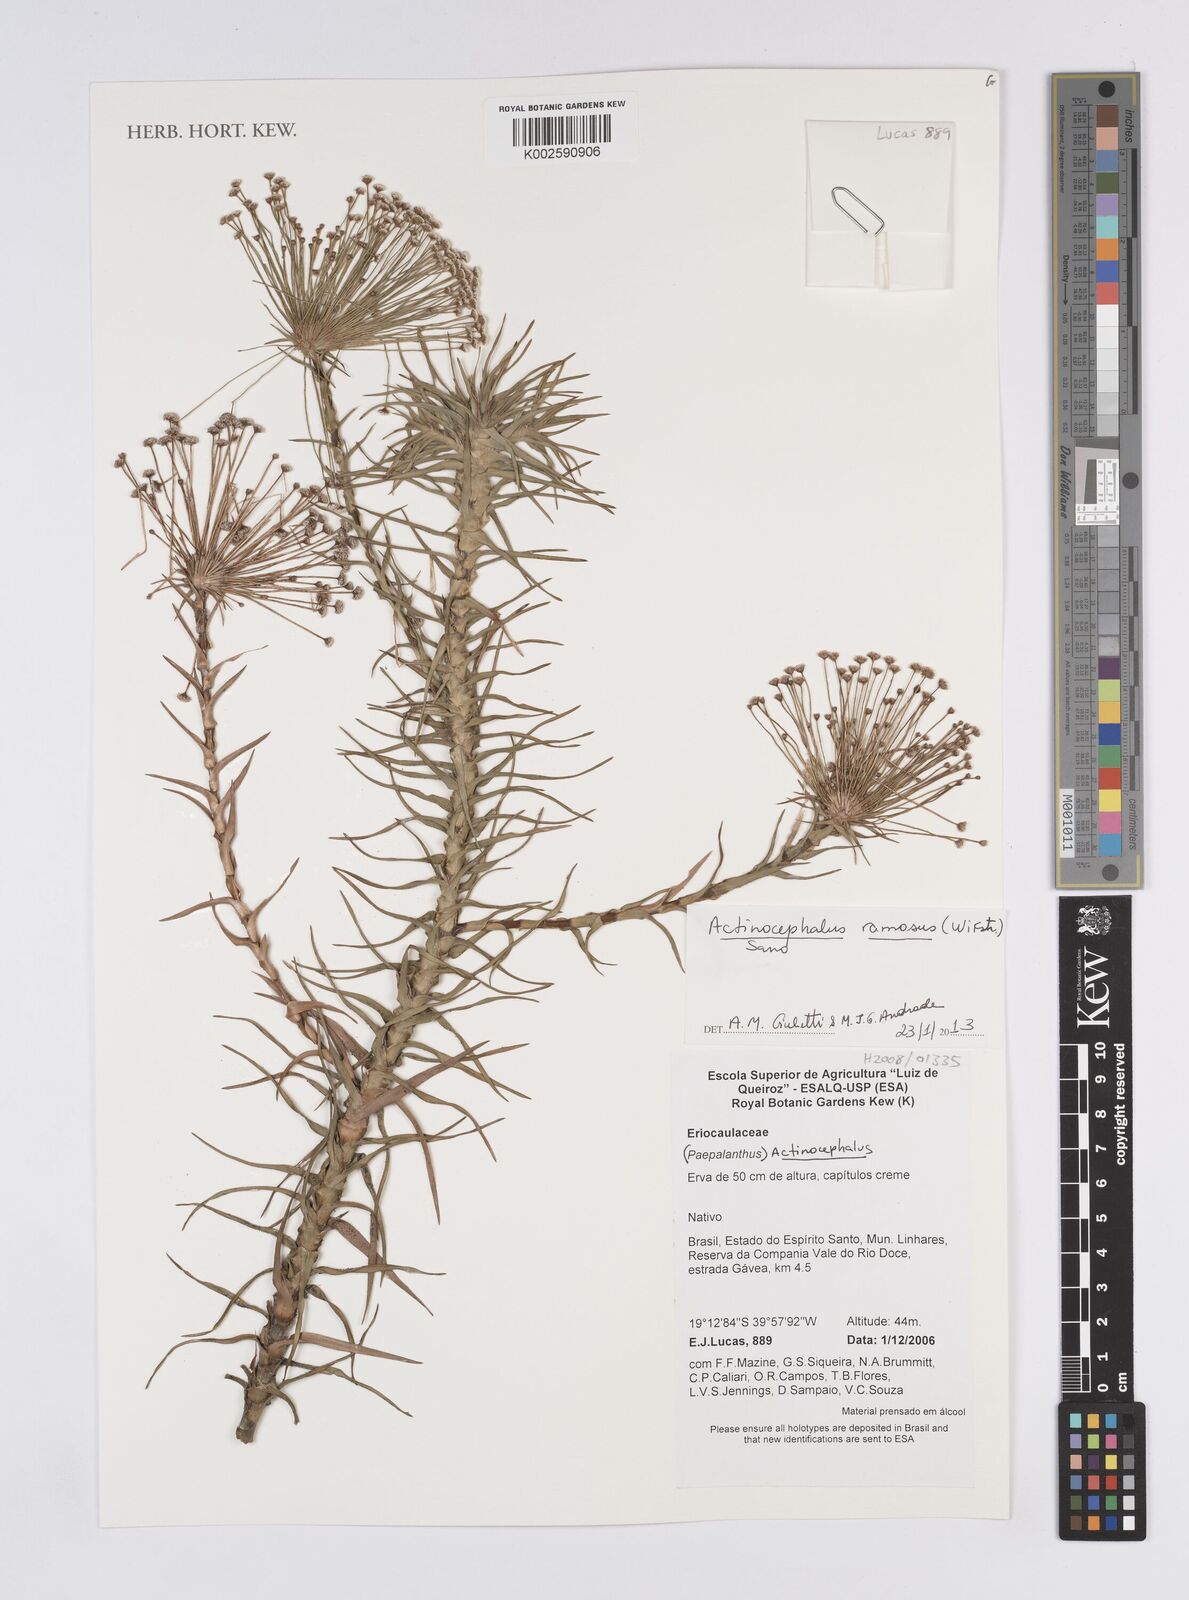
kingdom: Plantae
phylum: Tracheophyta
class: Liliopsida
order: Poales
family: Eriocaulaceae
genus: Paepalanthus
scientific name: Paepalanthus ramosus
